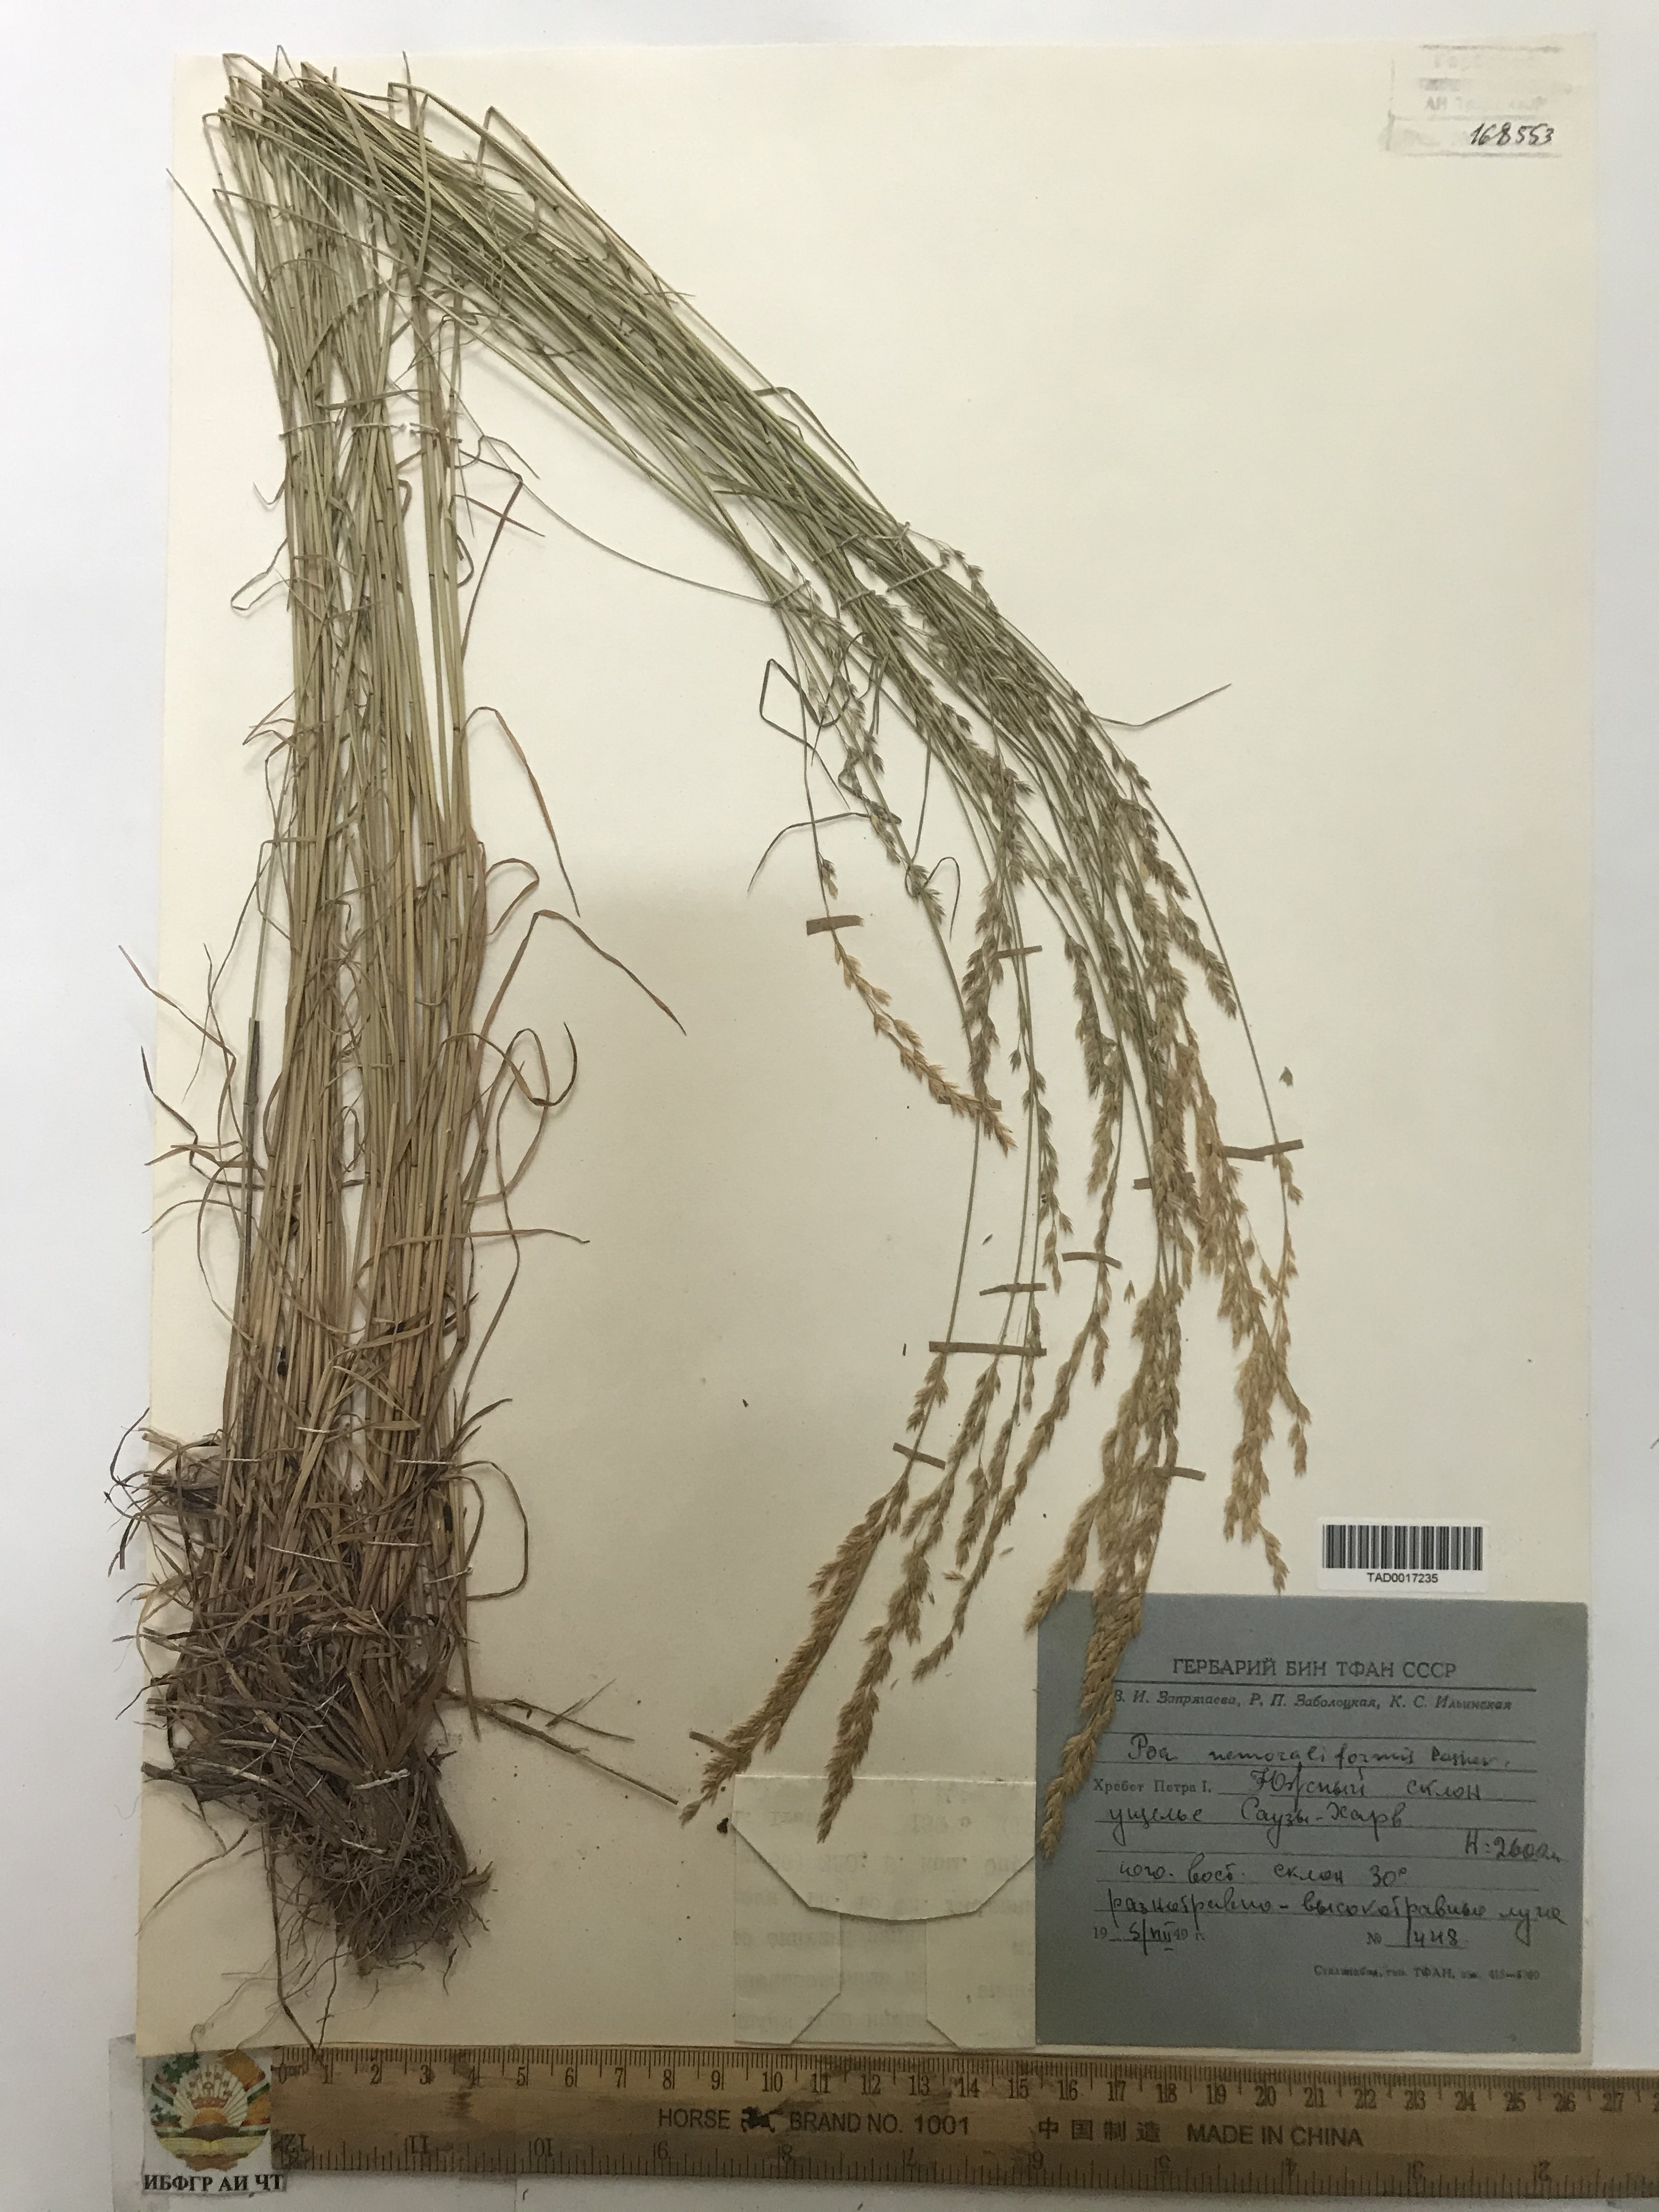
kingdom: Plantae
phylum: Tracheophyta
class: Liliopsida
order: Poales
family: Poaceae
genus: Poa
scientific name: Poa nemoralis
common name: Wood bluegrass
